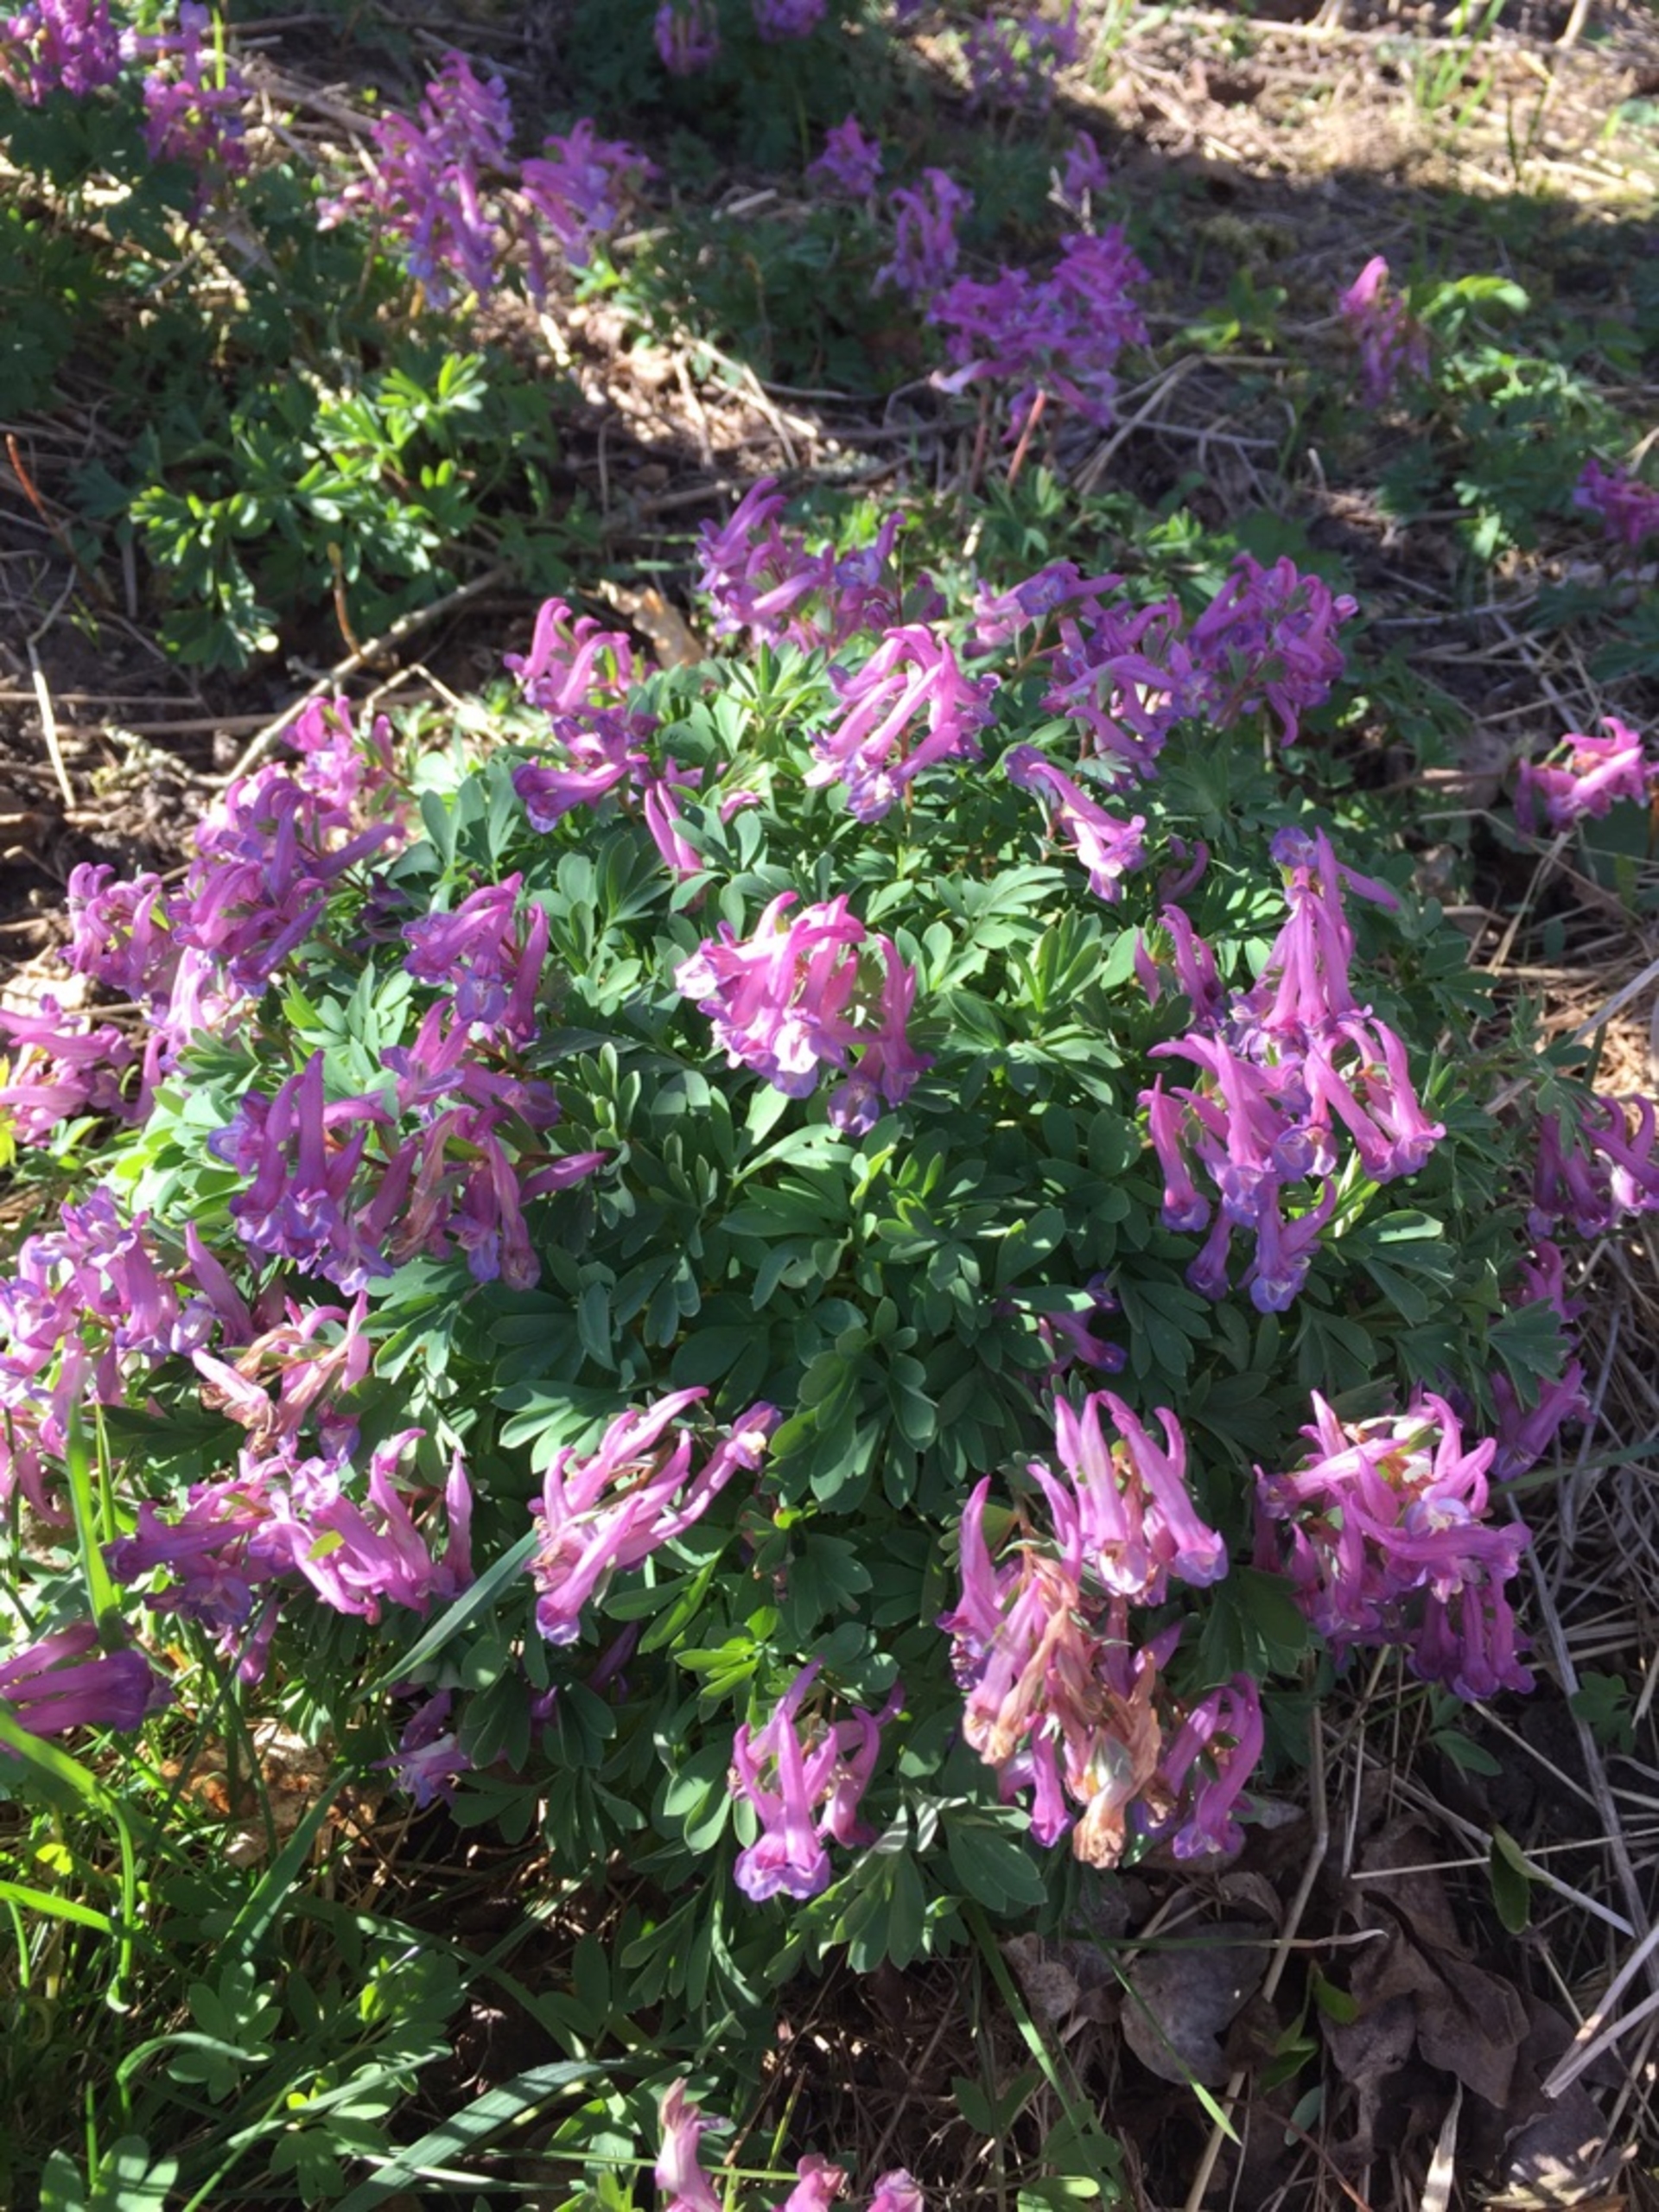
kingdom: Plantae
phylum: Tracheophyta
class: Magnoliopsida
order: Ranunculales
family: Papaveraceae
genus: Corydalis
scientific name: Corydalis solida
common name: Langstilket lærkespore
